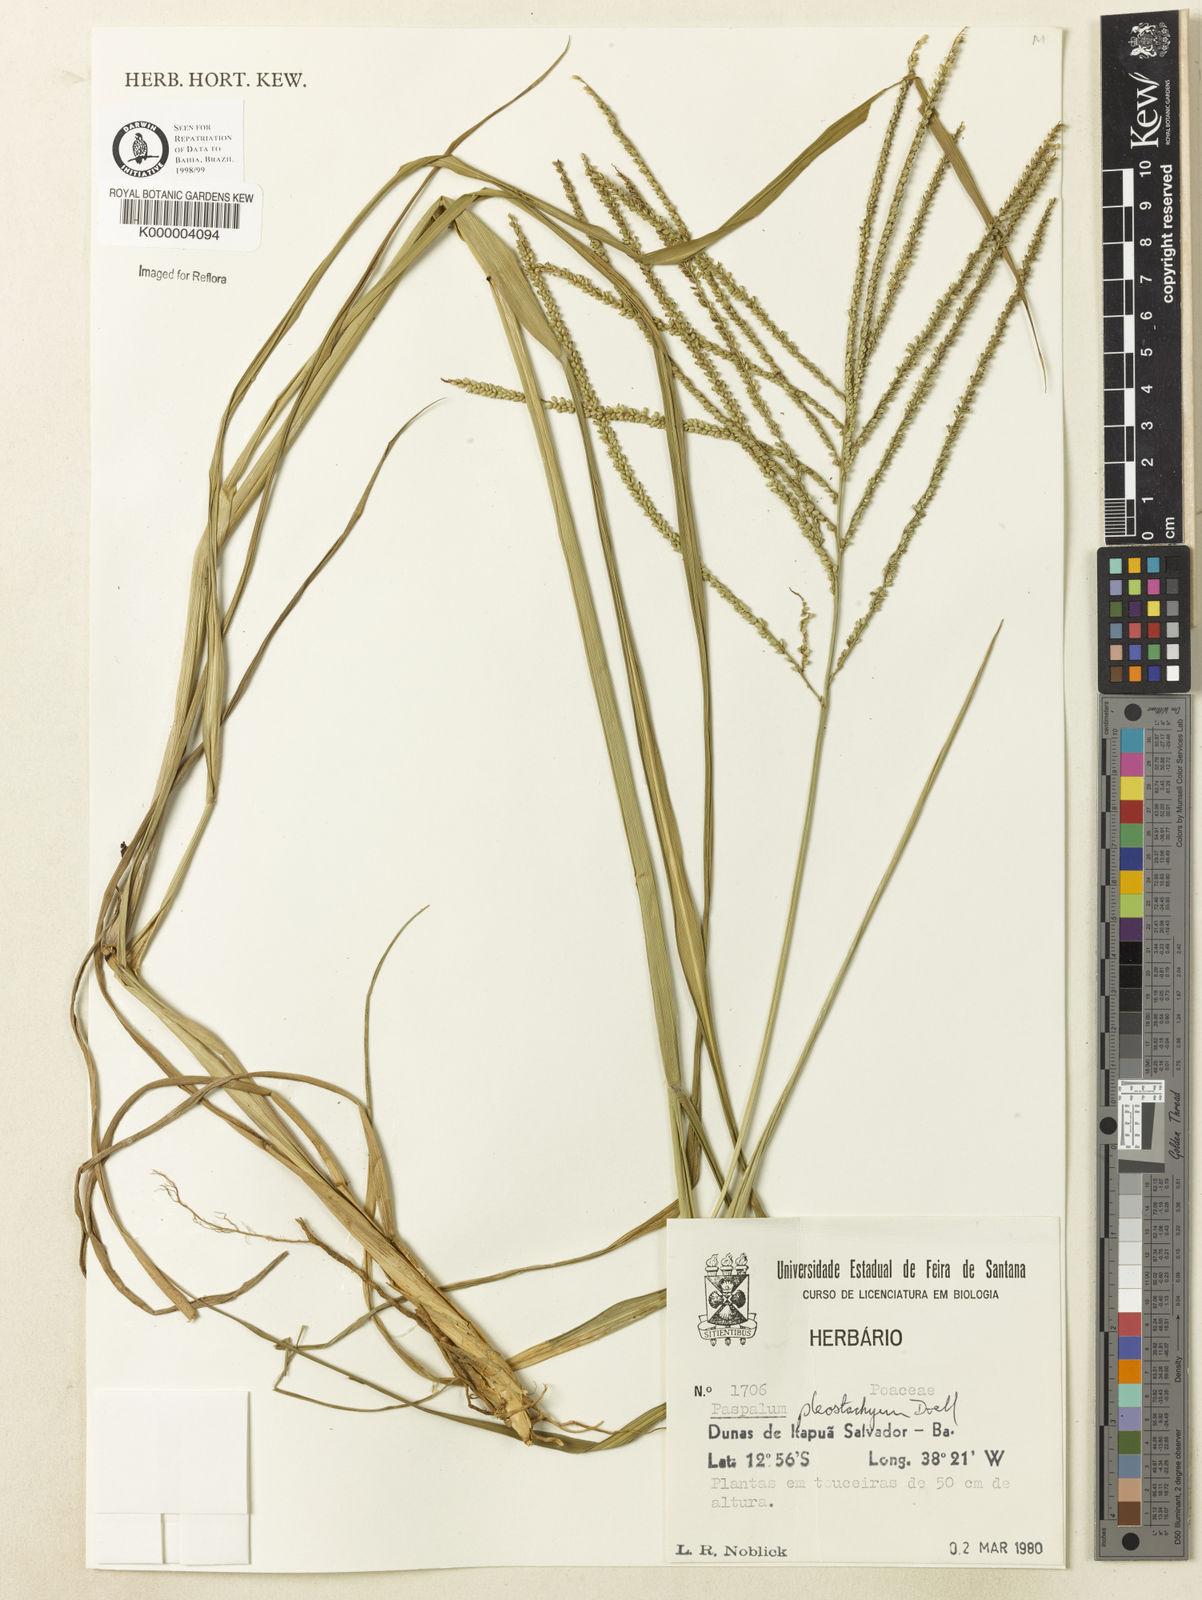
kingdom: Plantae
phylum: Tracheophyta
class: Liliopsida
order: Poales
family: Poaceae
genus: Paspalum
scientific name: Paspalum
